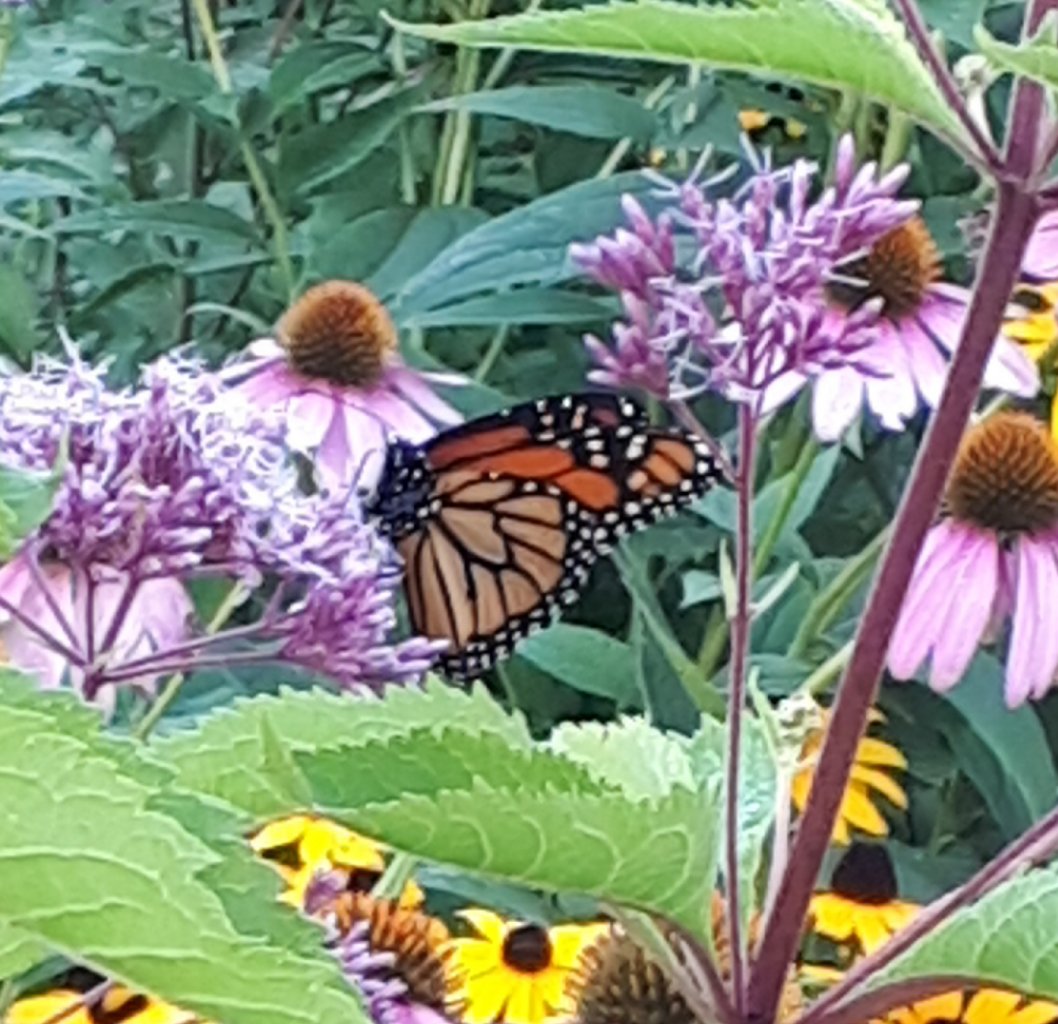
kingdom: Animalia
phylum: Arthropoda
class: Insecta
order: Lepidoptera
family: Nymphalidae
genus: Danaus
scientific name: Danaus plexippus
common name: Monarch
